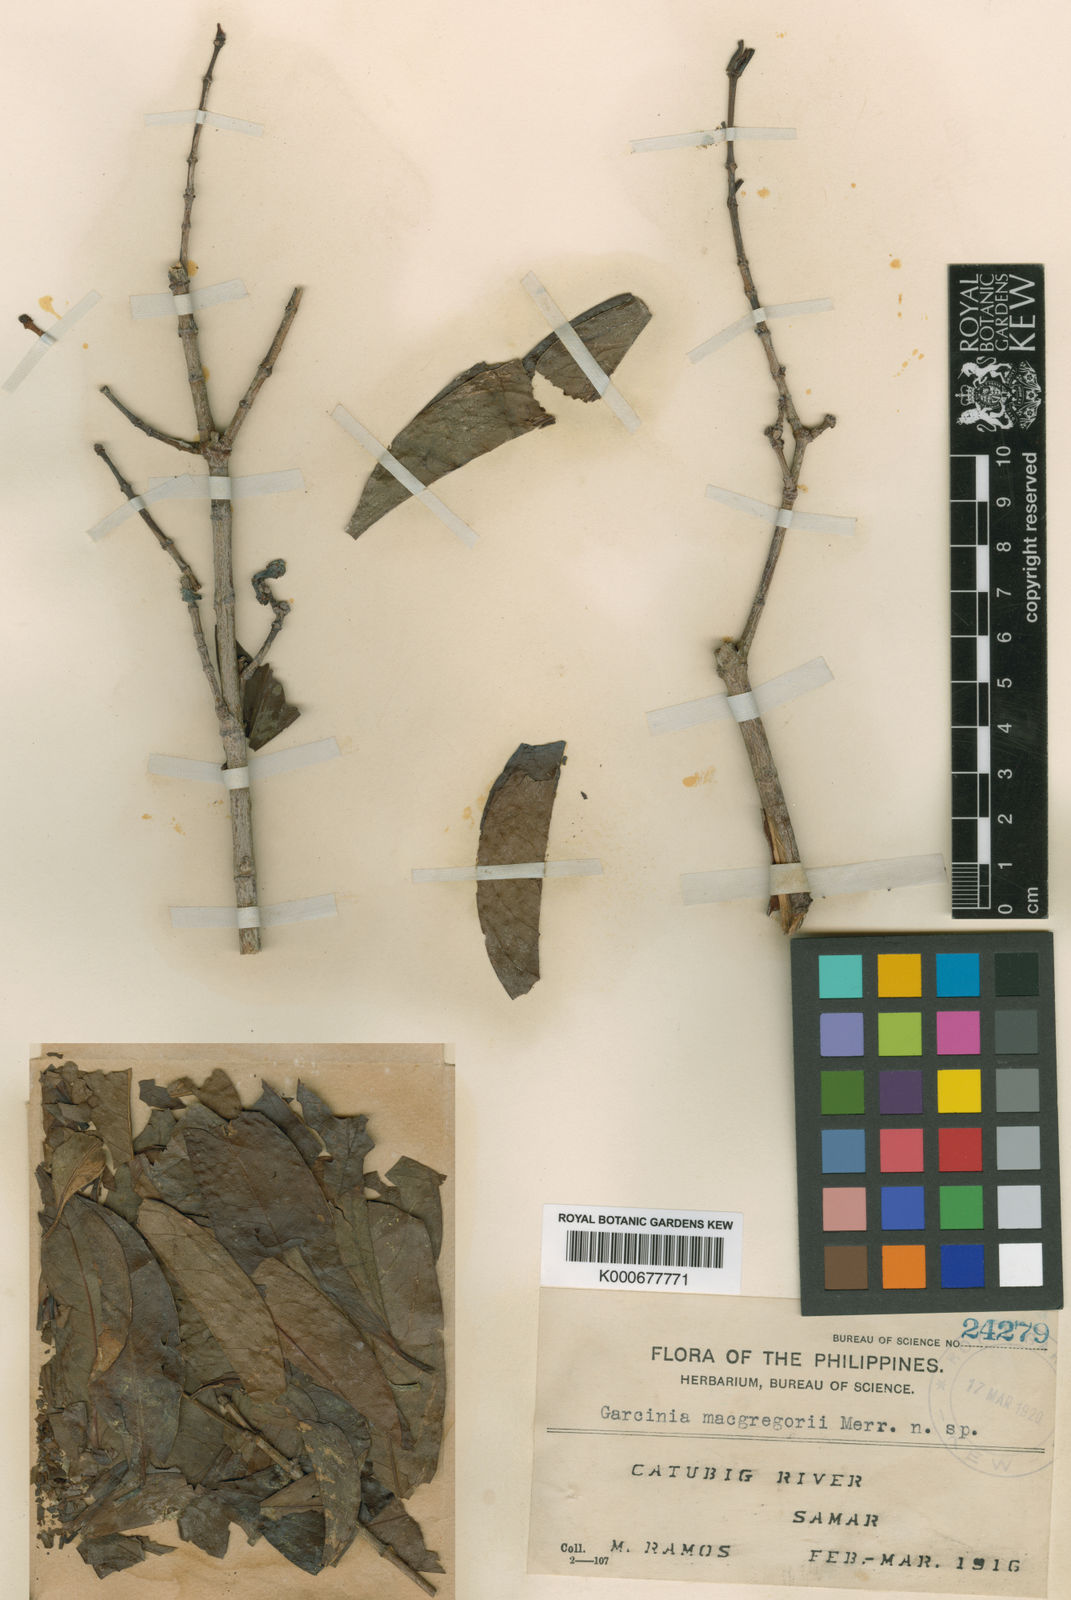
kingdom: Plantae
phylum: Tracheophyta
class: Magnoliopsida
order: Malpighiales
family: Clusiaceae
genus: Garcinia
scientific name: Garcinia macgregorii
